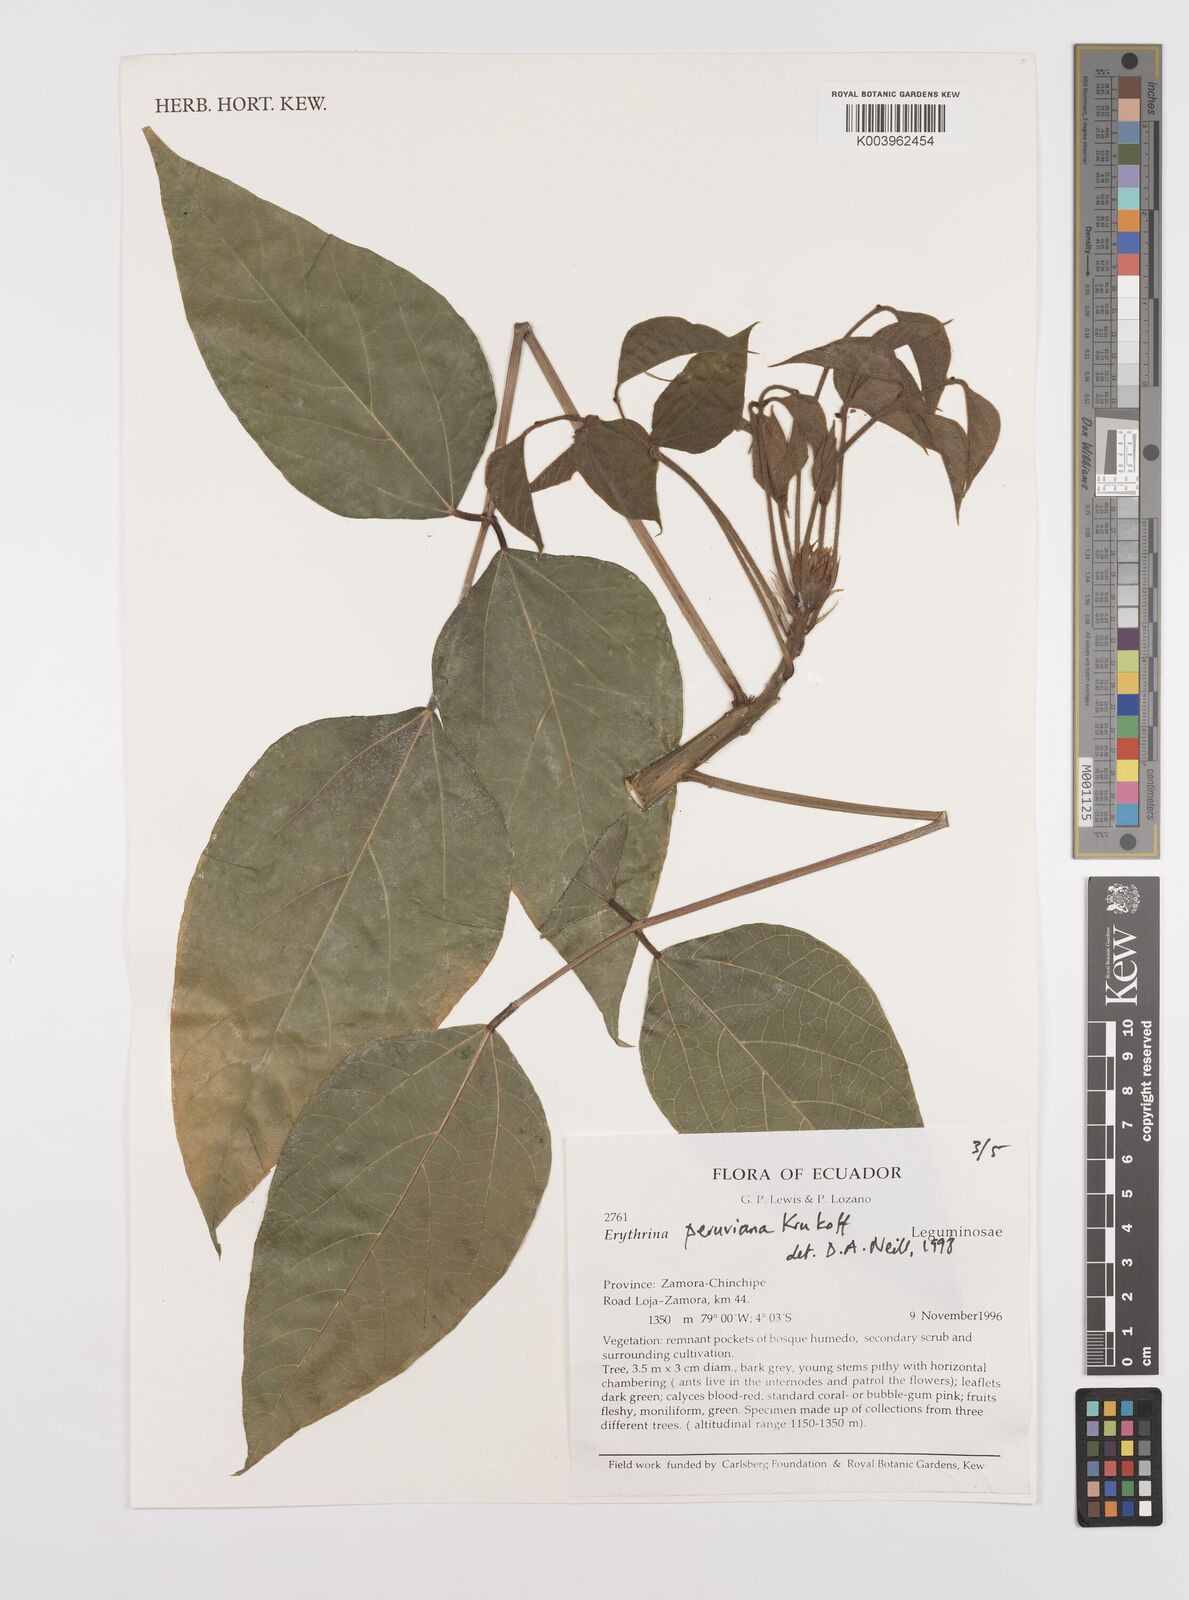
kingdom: Plantae
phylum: Tracheophyta
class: Magnoliopsida
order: Fabales
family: Fabaceae
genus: Erythrina
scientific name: Erythrina peruviana
